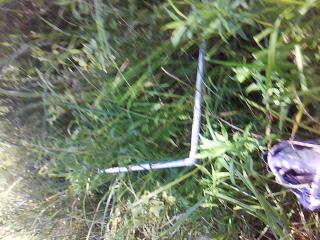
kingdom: Plantae
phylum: Tracheophyta
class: Magnoliopsida
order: Ericales
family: Balsaminaceae
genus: Impatiens
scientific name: Impatiens capensis
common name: Orange balsam
